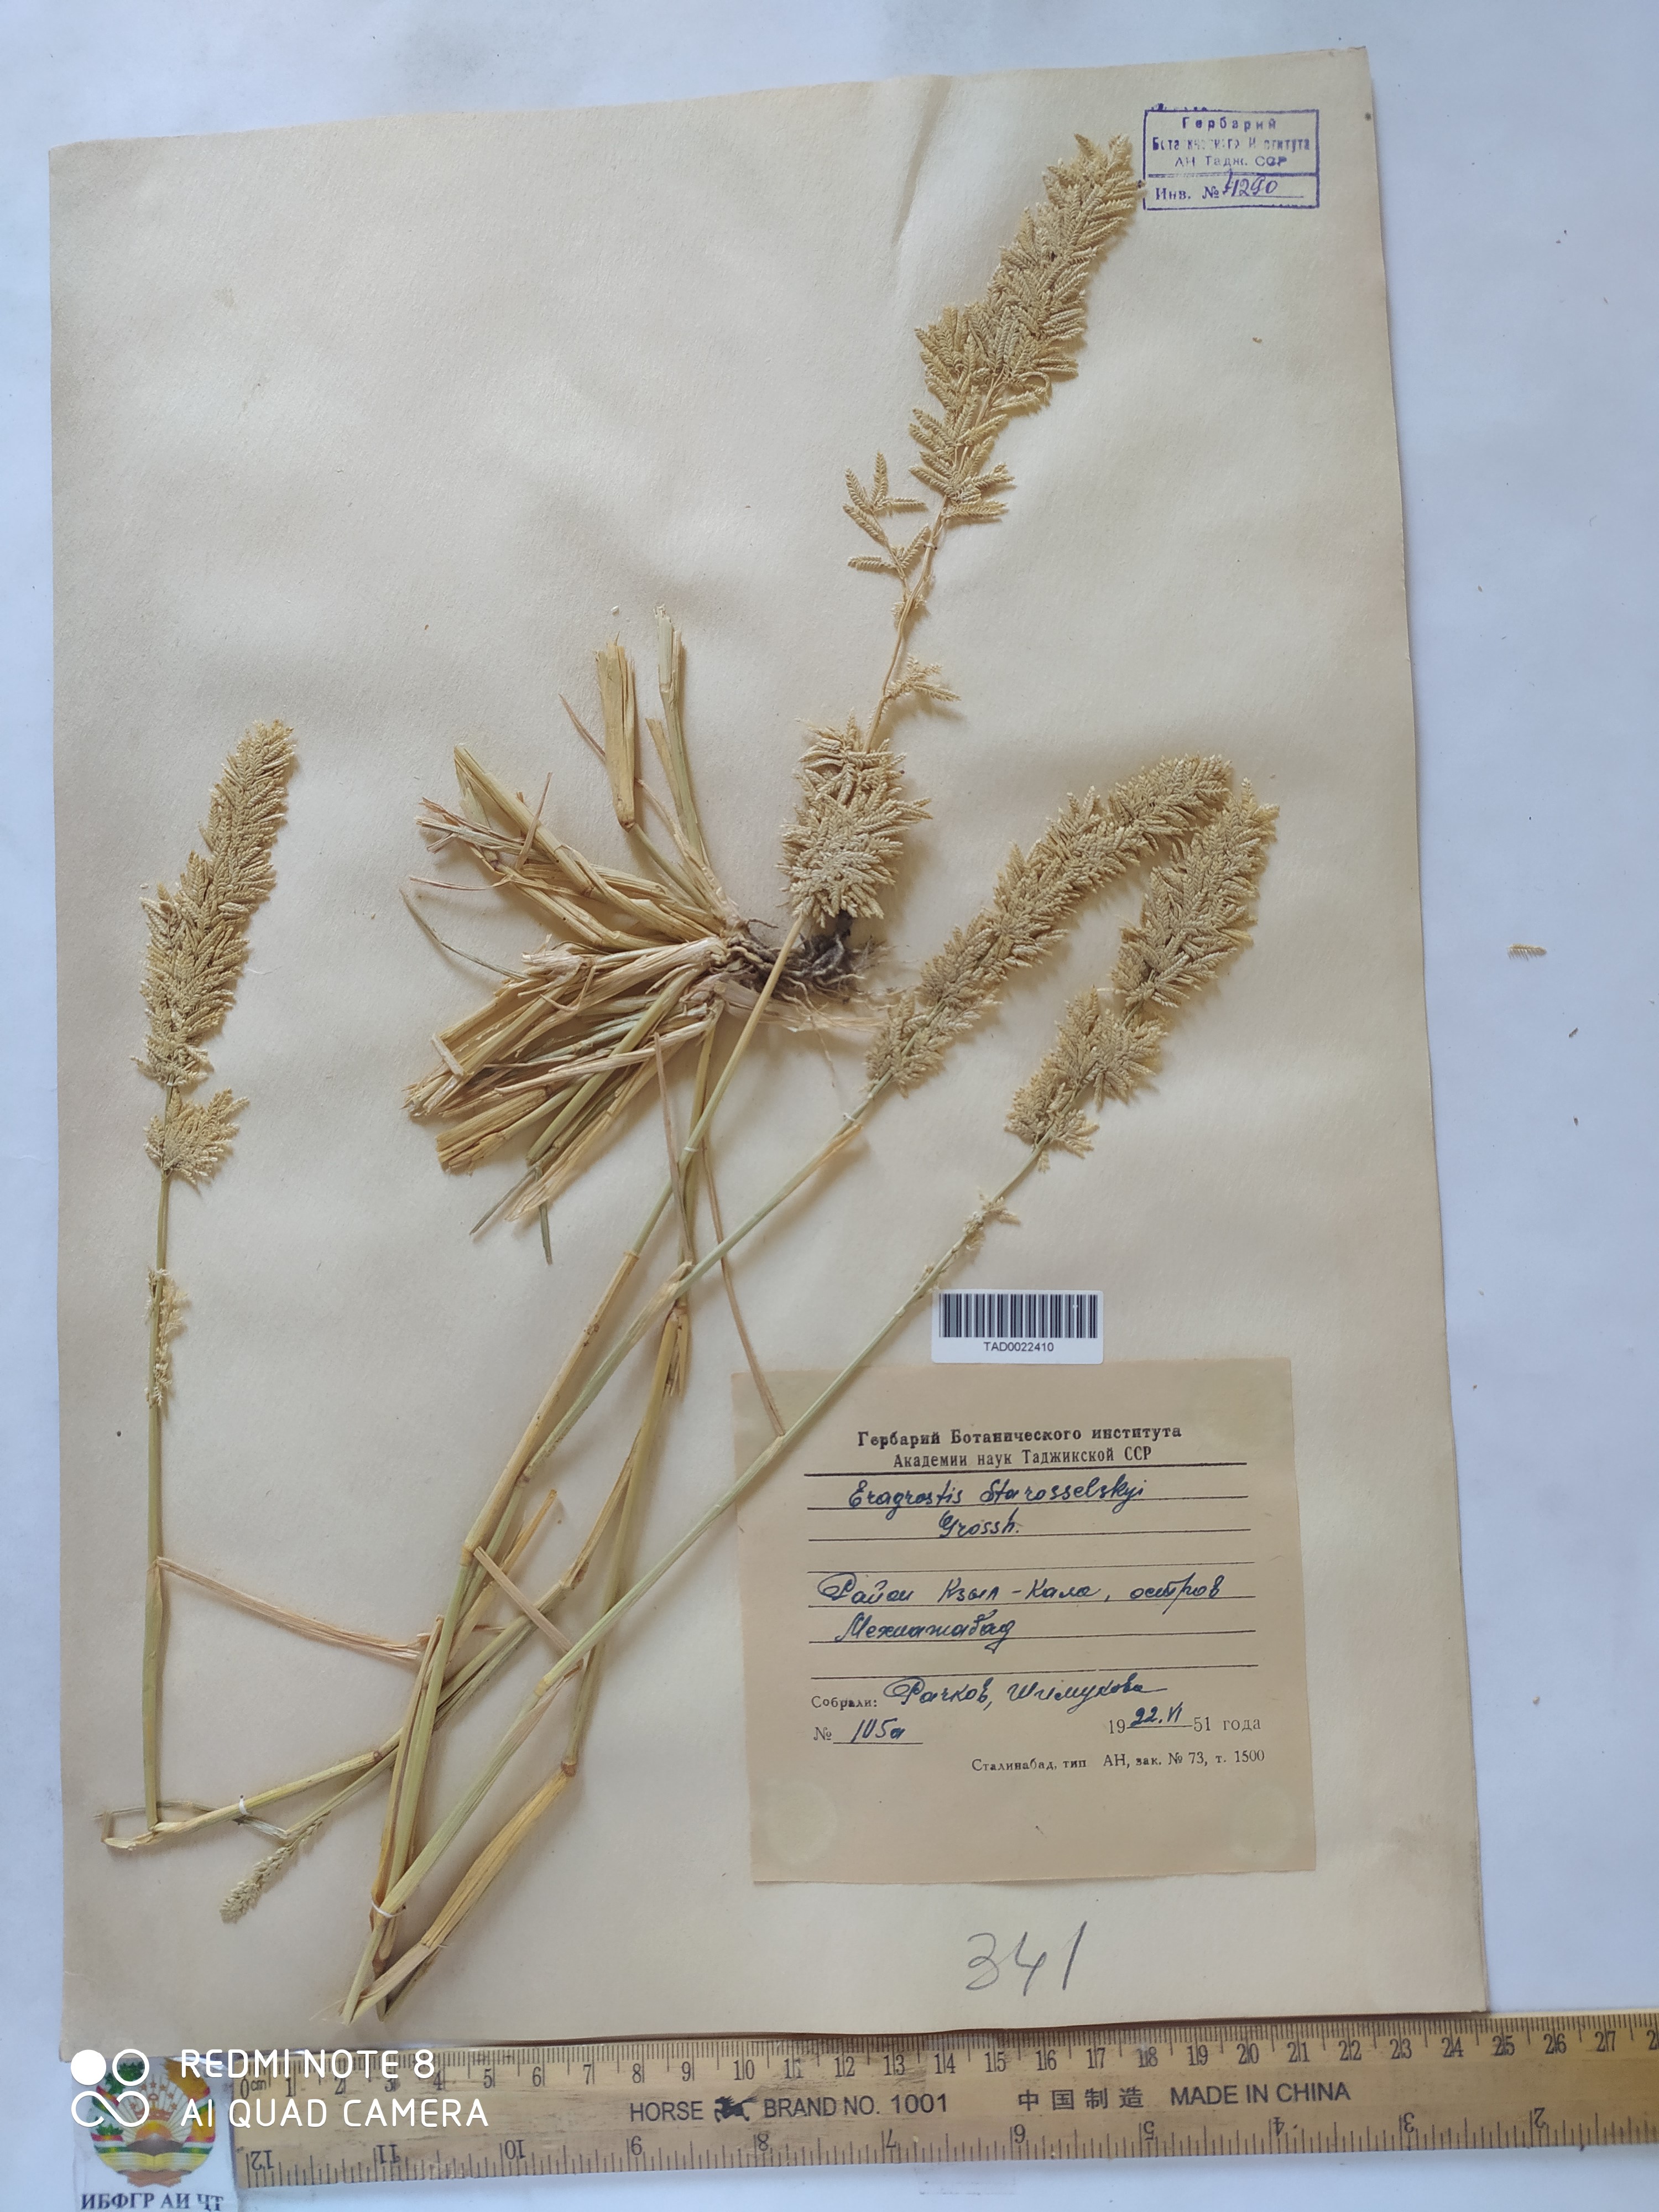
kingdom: Plantae
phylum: Tracheophyta
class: Liliopsida
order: Poales
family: Poaceae
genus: Eragrostis
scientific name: Eragrostis cilianensis
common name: Stinkgrass
